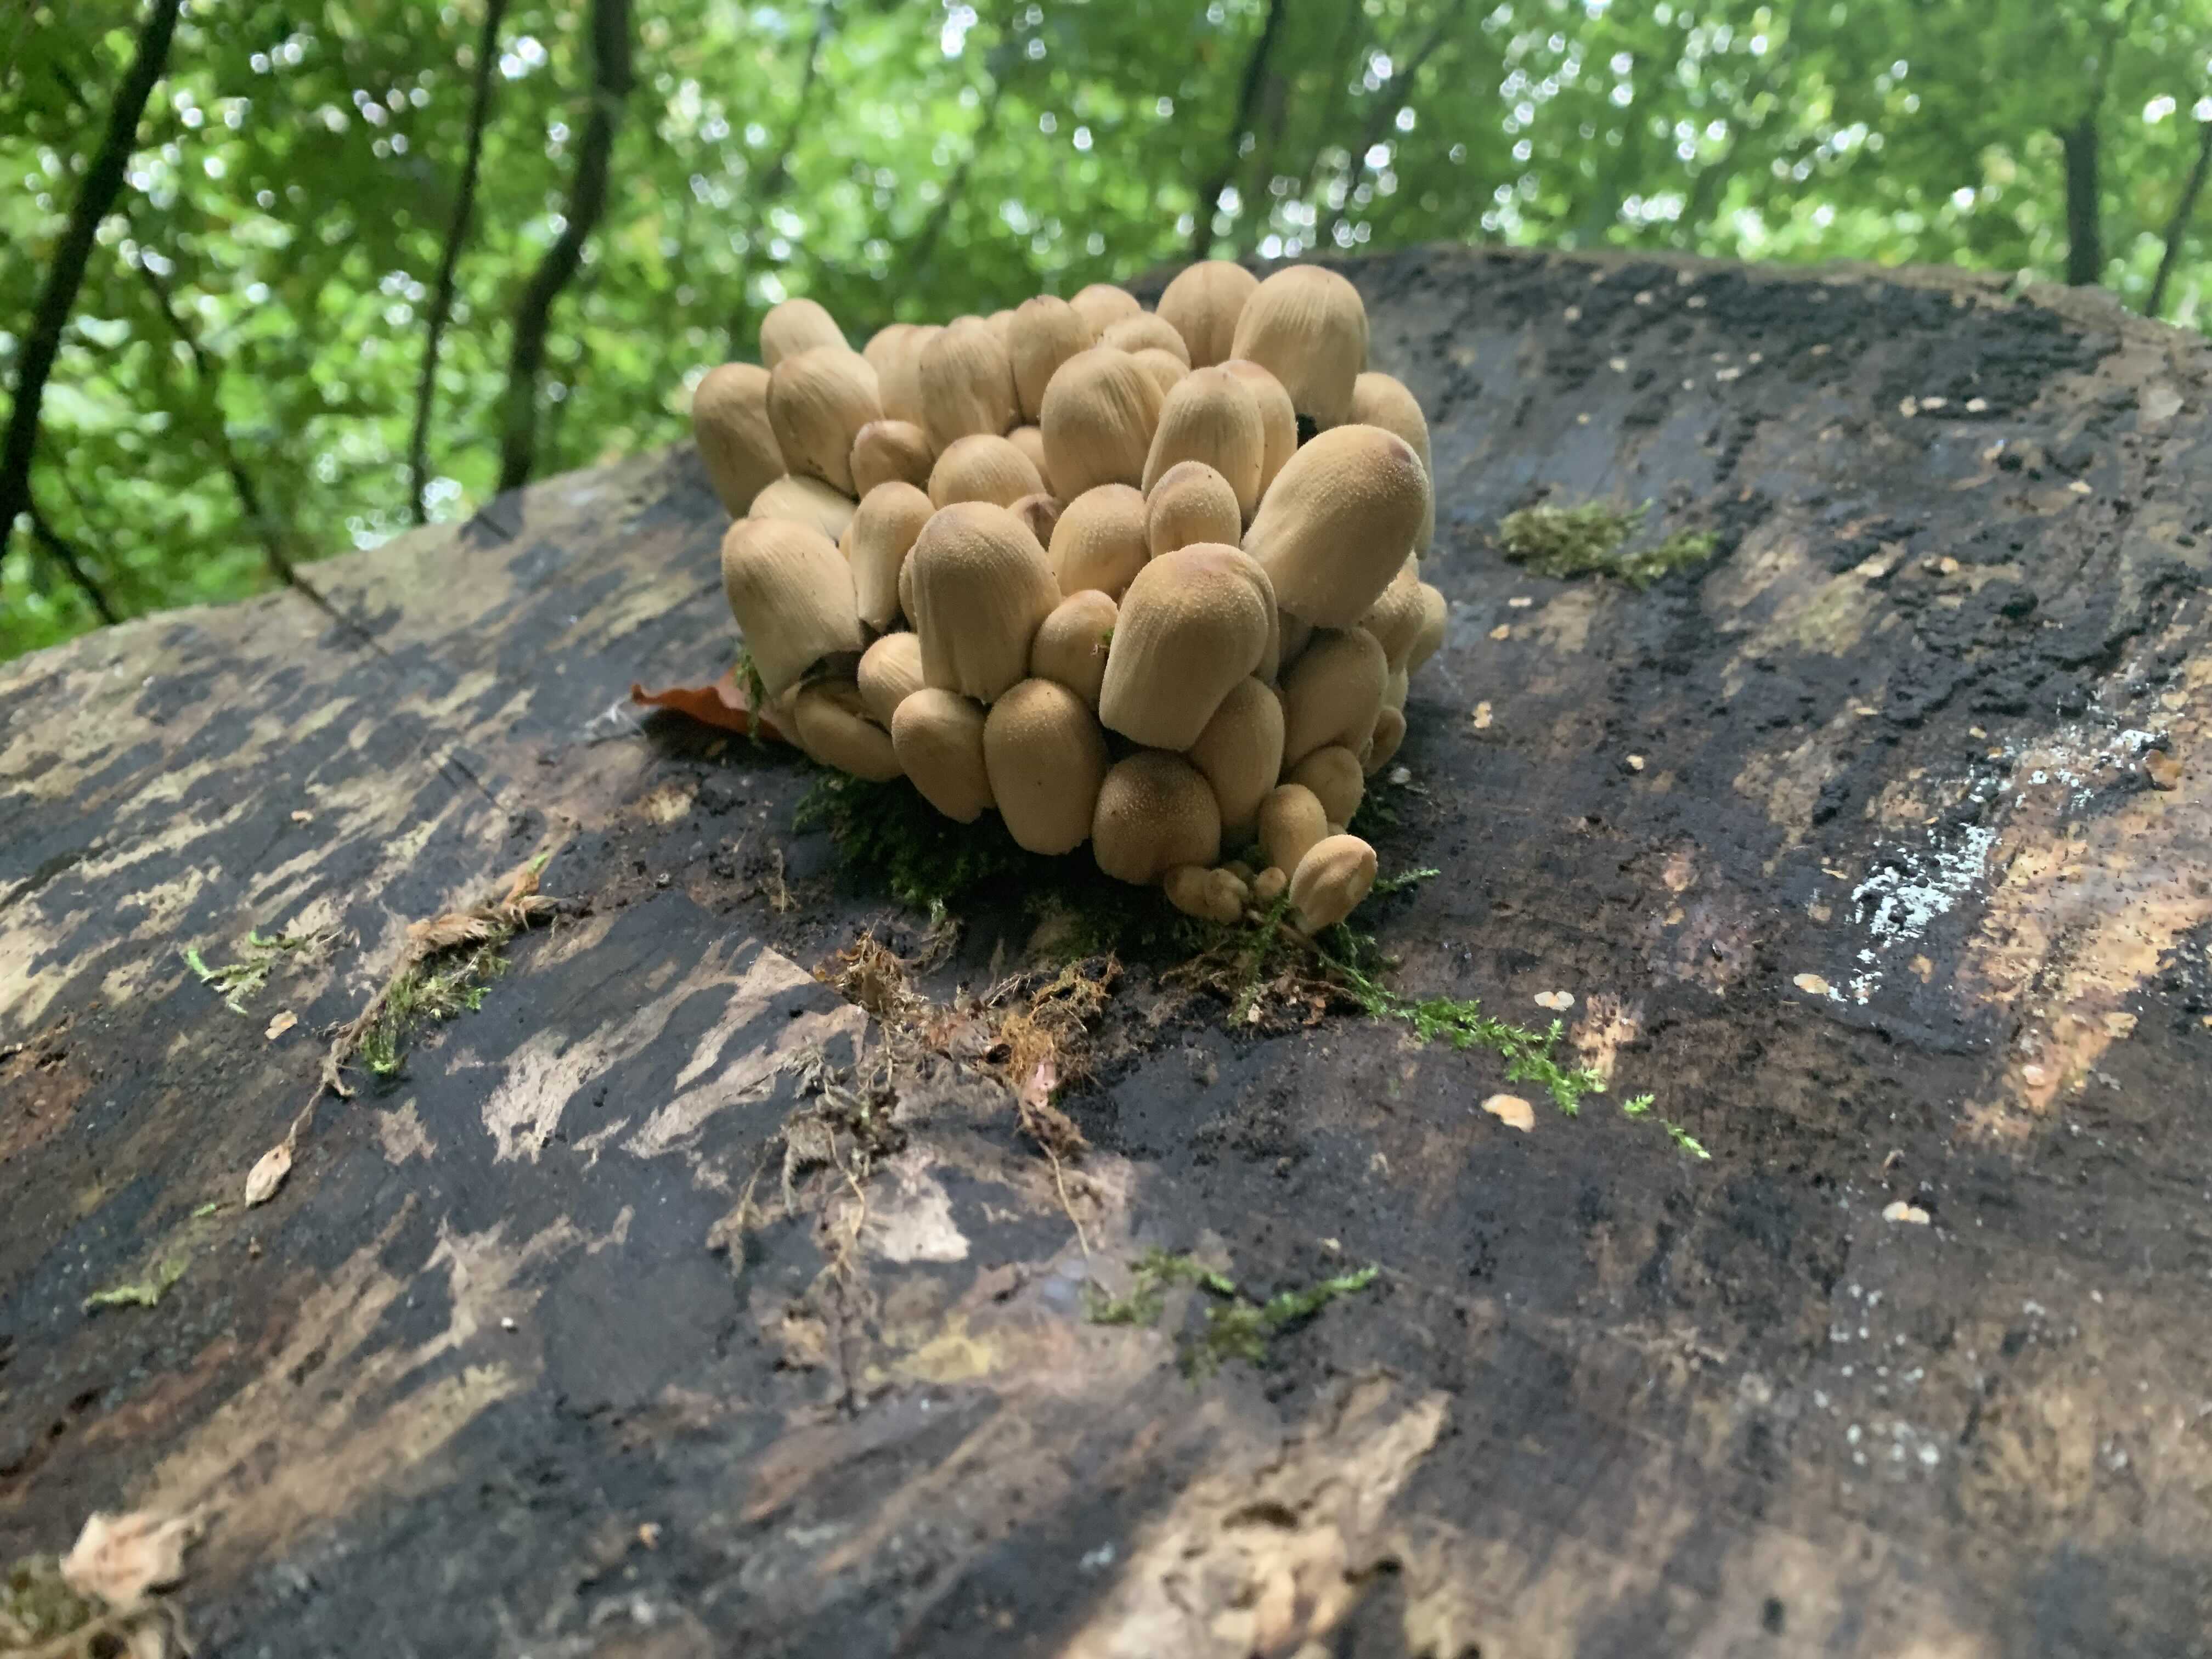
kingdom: Fungi
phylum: Basidiomycota
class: Agaricomycetes
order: Agaricales
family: Psathyrellaceae
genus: Coprinellus
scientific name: Coprinellus micaceus
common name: glimmer-blækhat
